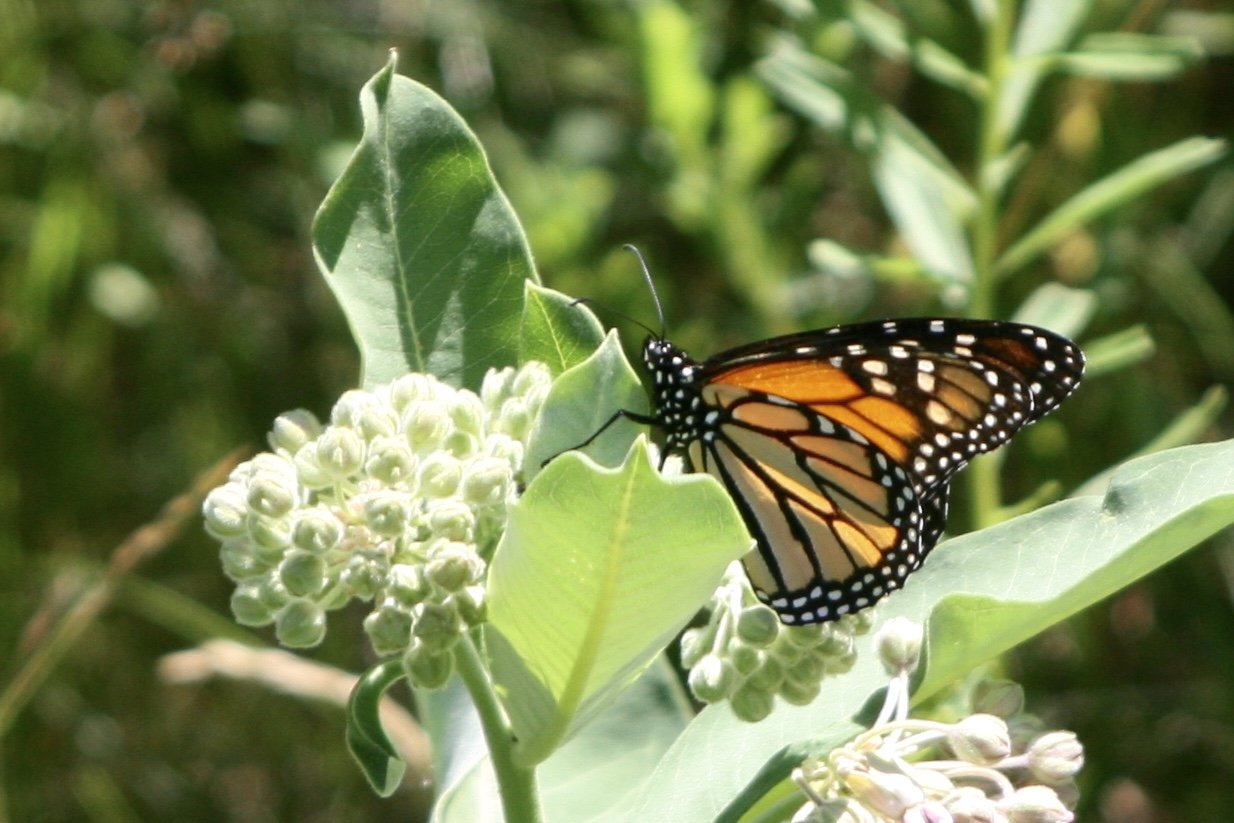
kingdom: Animalia
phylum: Arthropoda
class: Insecta
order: Lepidoptera
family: Nymphalidae
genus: Danaus
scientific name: Danaus plexippus
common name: Monarch
